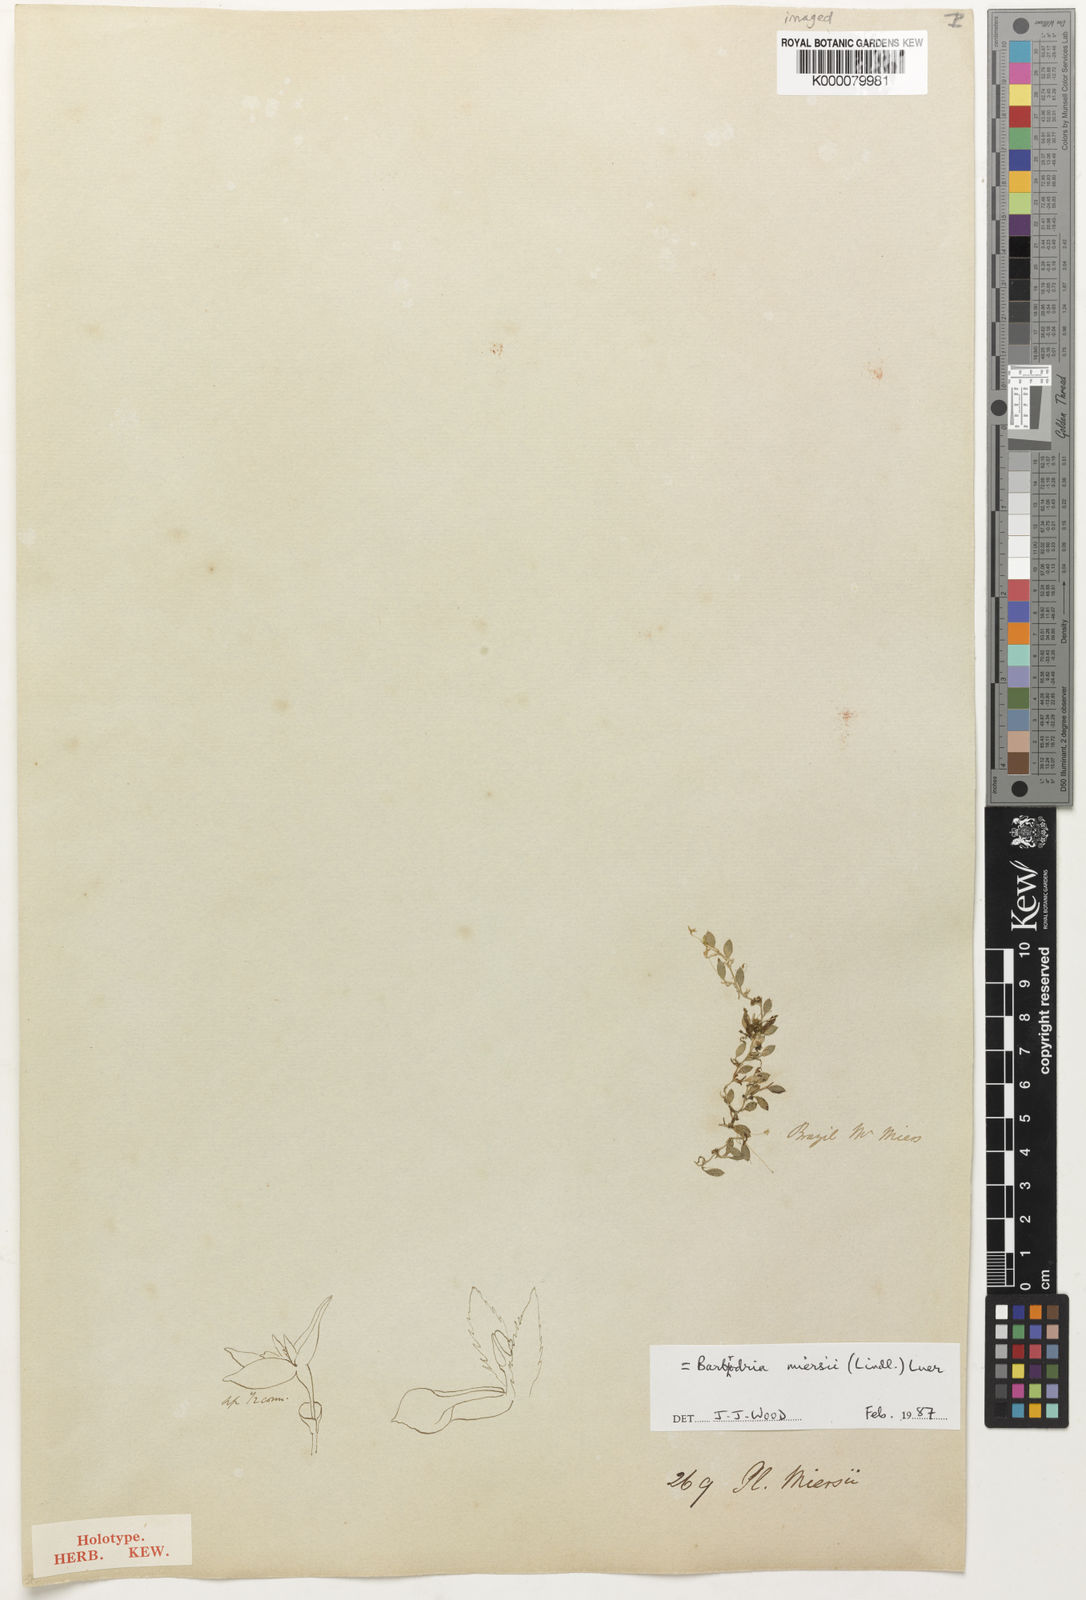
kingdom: Plantae
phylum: Tracheophyta
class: Liliopsida
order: Asparagales
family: Orchidaceae
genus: Barbosella
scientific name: Barbosella miersii
